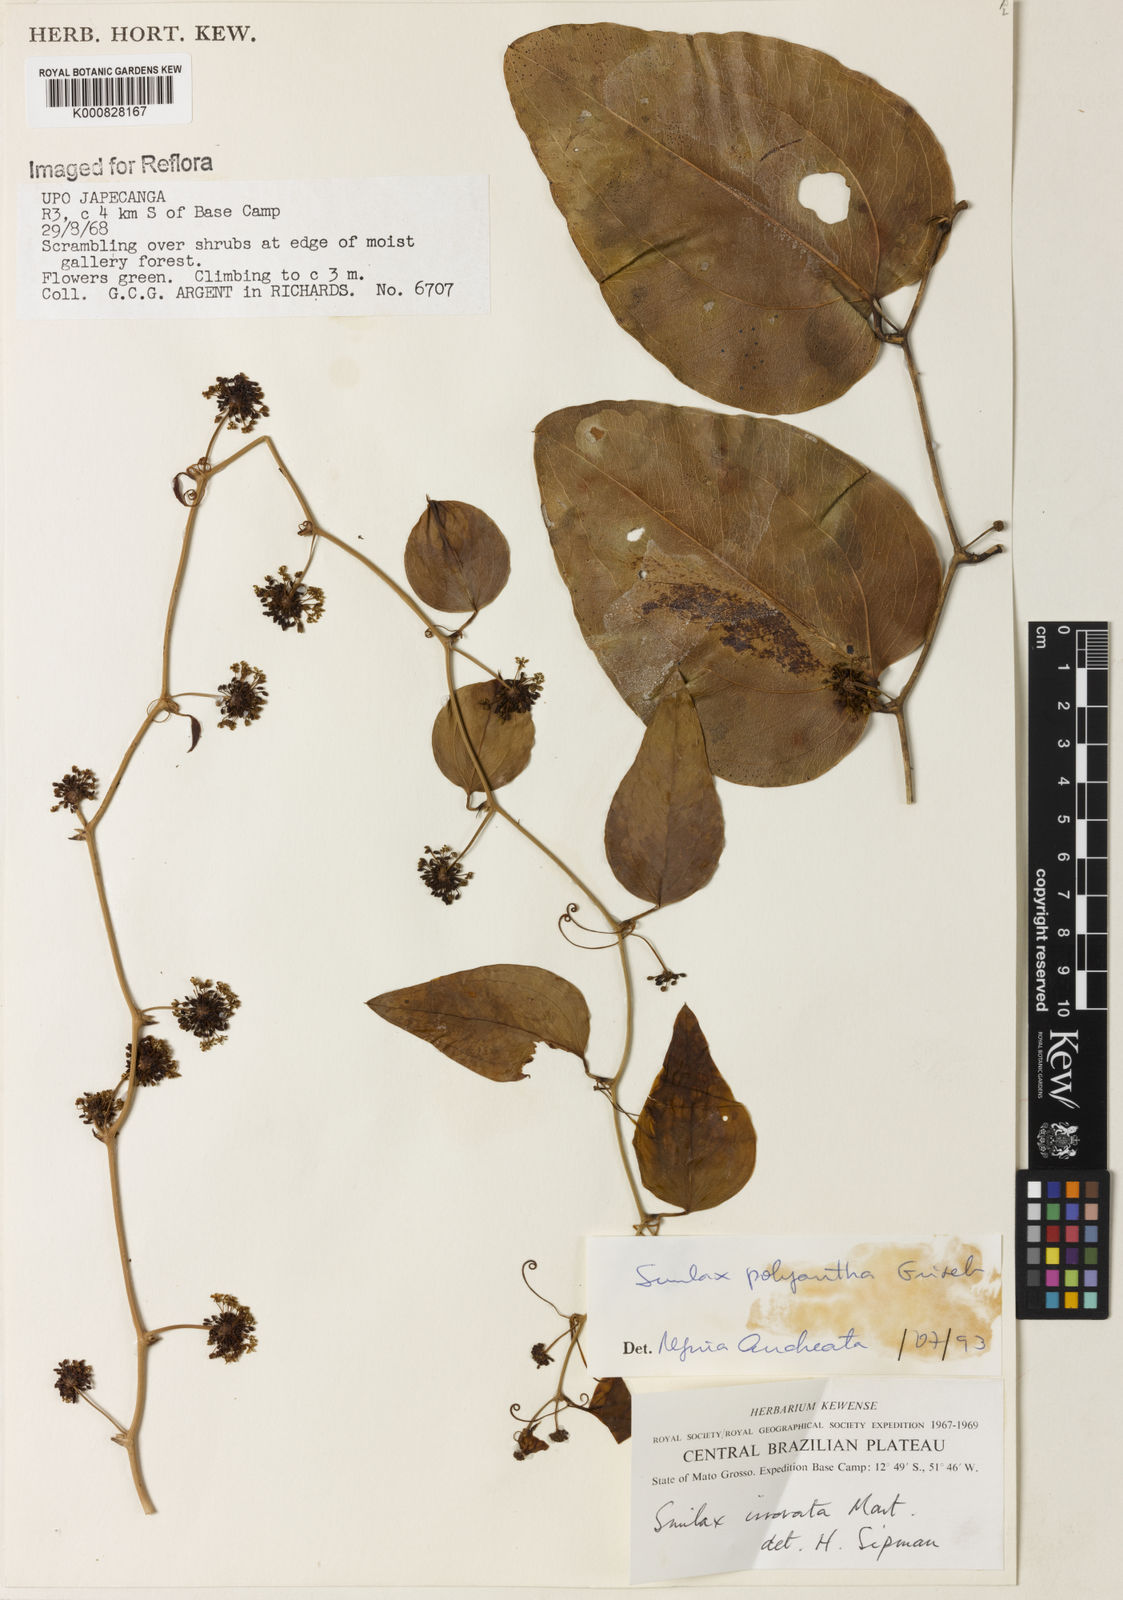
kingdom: Plantae
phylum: Tracheophyta
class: Liliopsida
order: Liliales
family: Smilacaceae
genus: Smilax
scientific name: Smilax polyantha
